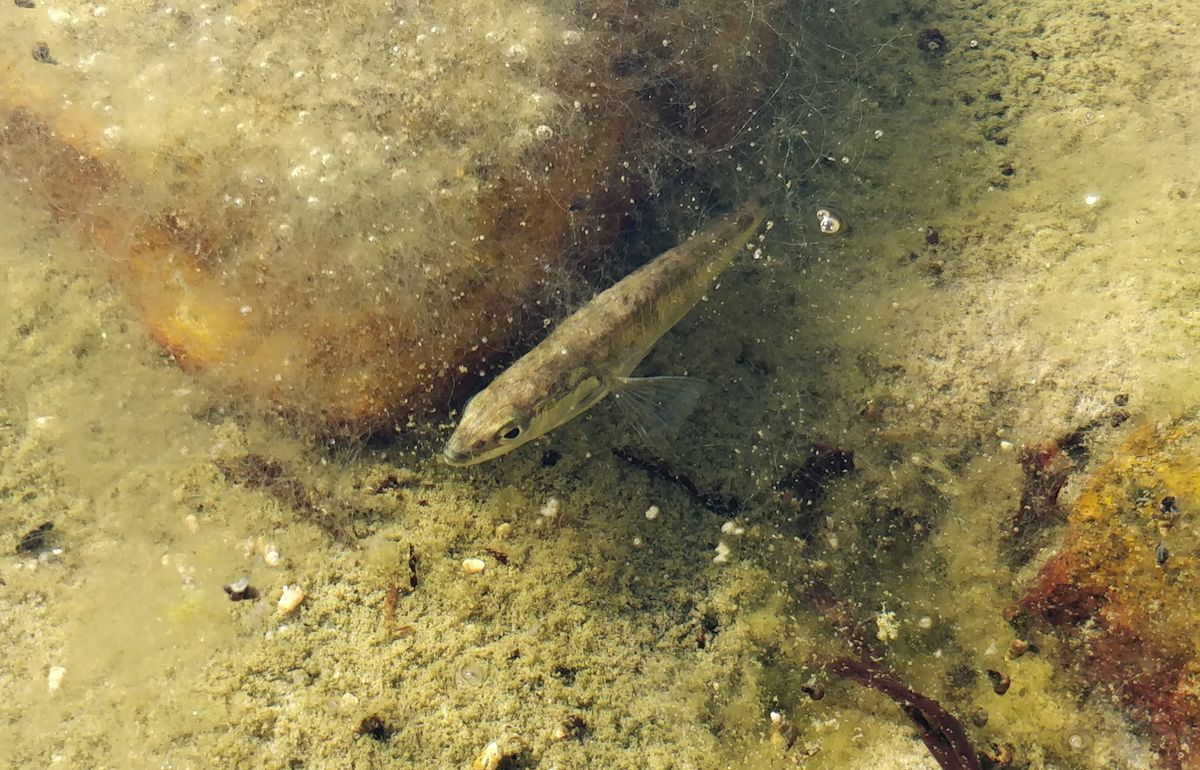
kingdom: Animalia
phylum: Chordata
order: Gasterosteiformes
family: Gasterosteidae
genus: Gasterosteus
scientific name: Gasterosteus aculeatus
